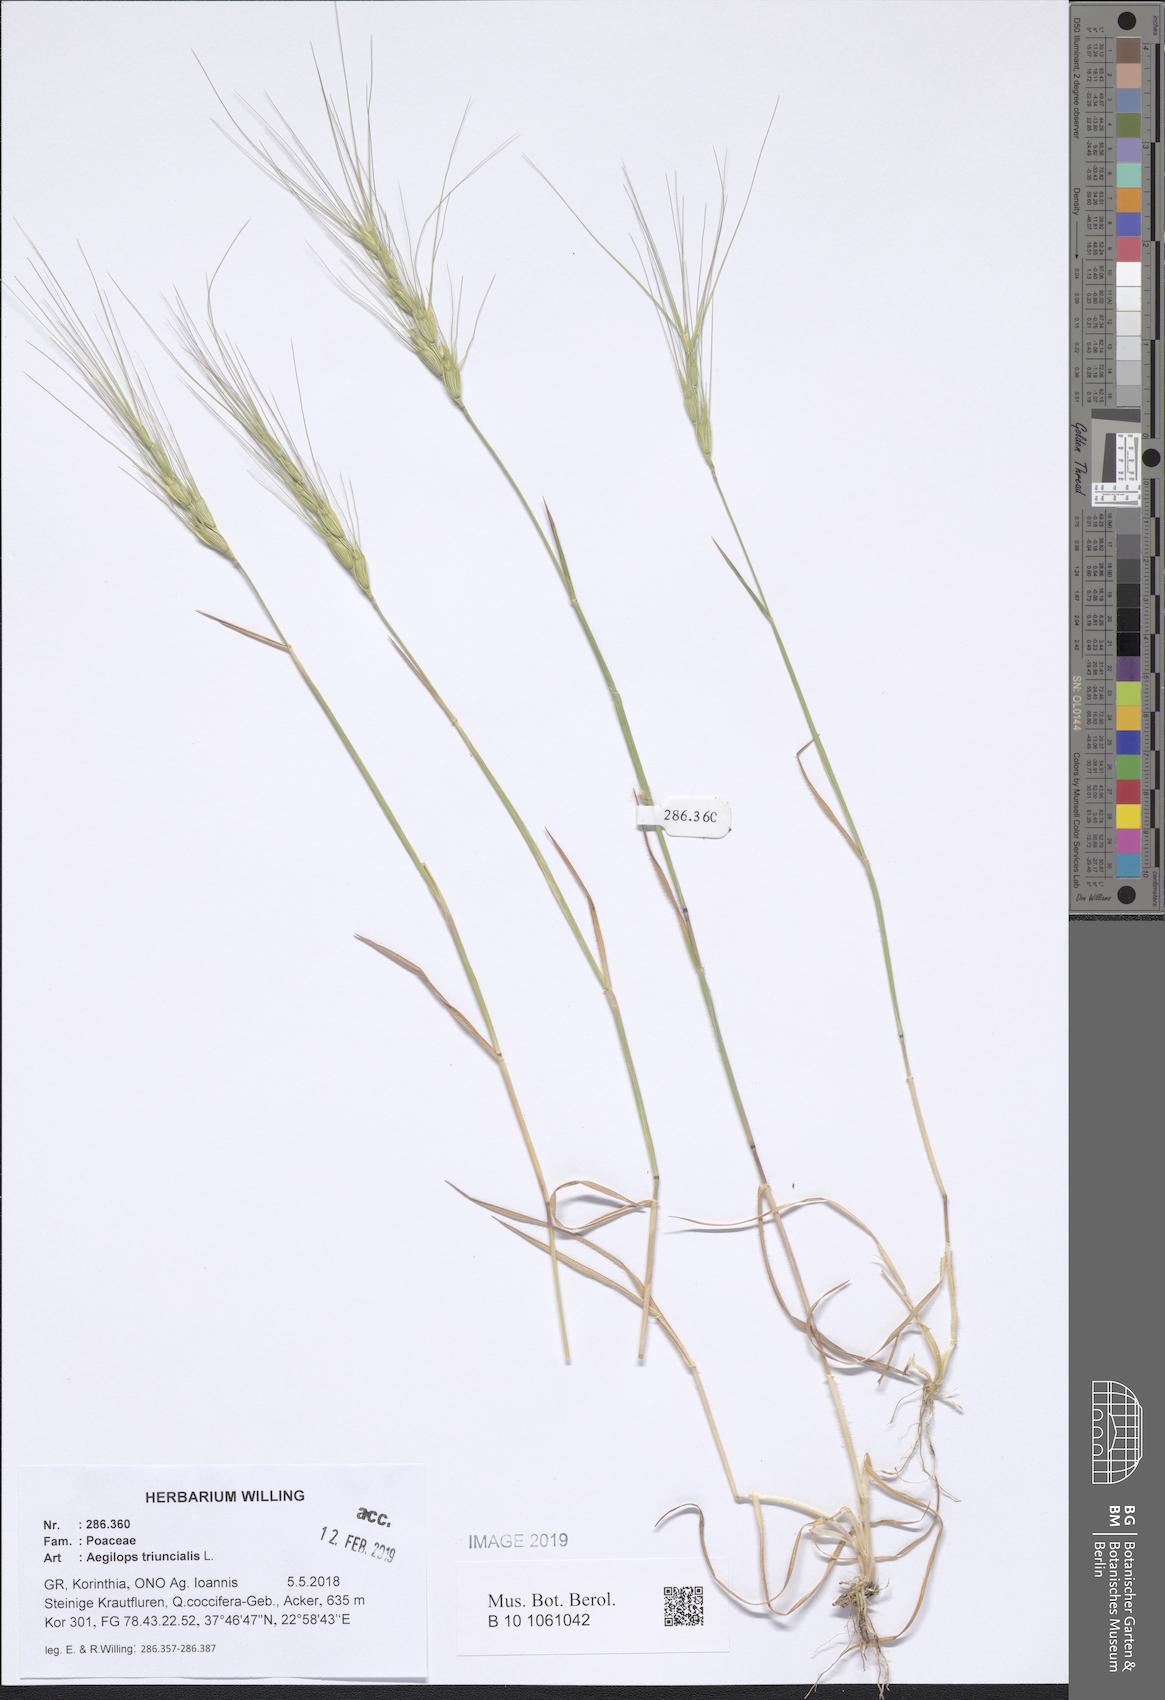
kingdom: Plantae
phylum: Tracheophyta
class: Liliopsida
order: Poales
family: Poaceae
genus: Aegilops
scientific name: Aegilops triuncialis
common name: Barb goat grass
